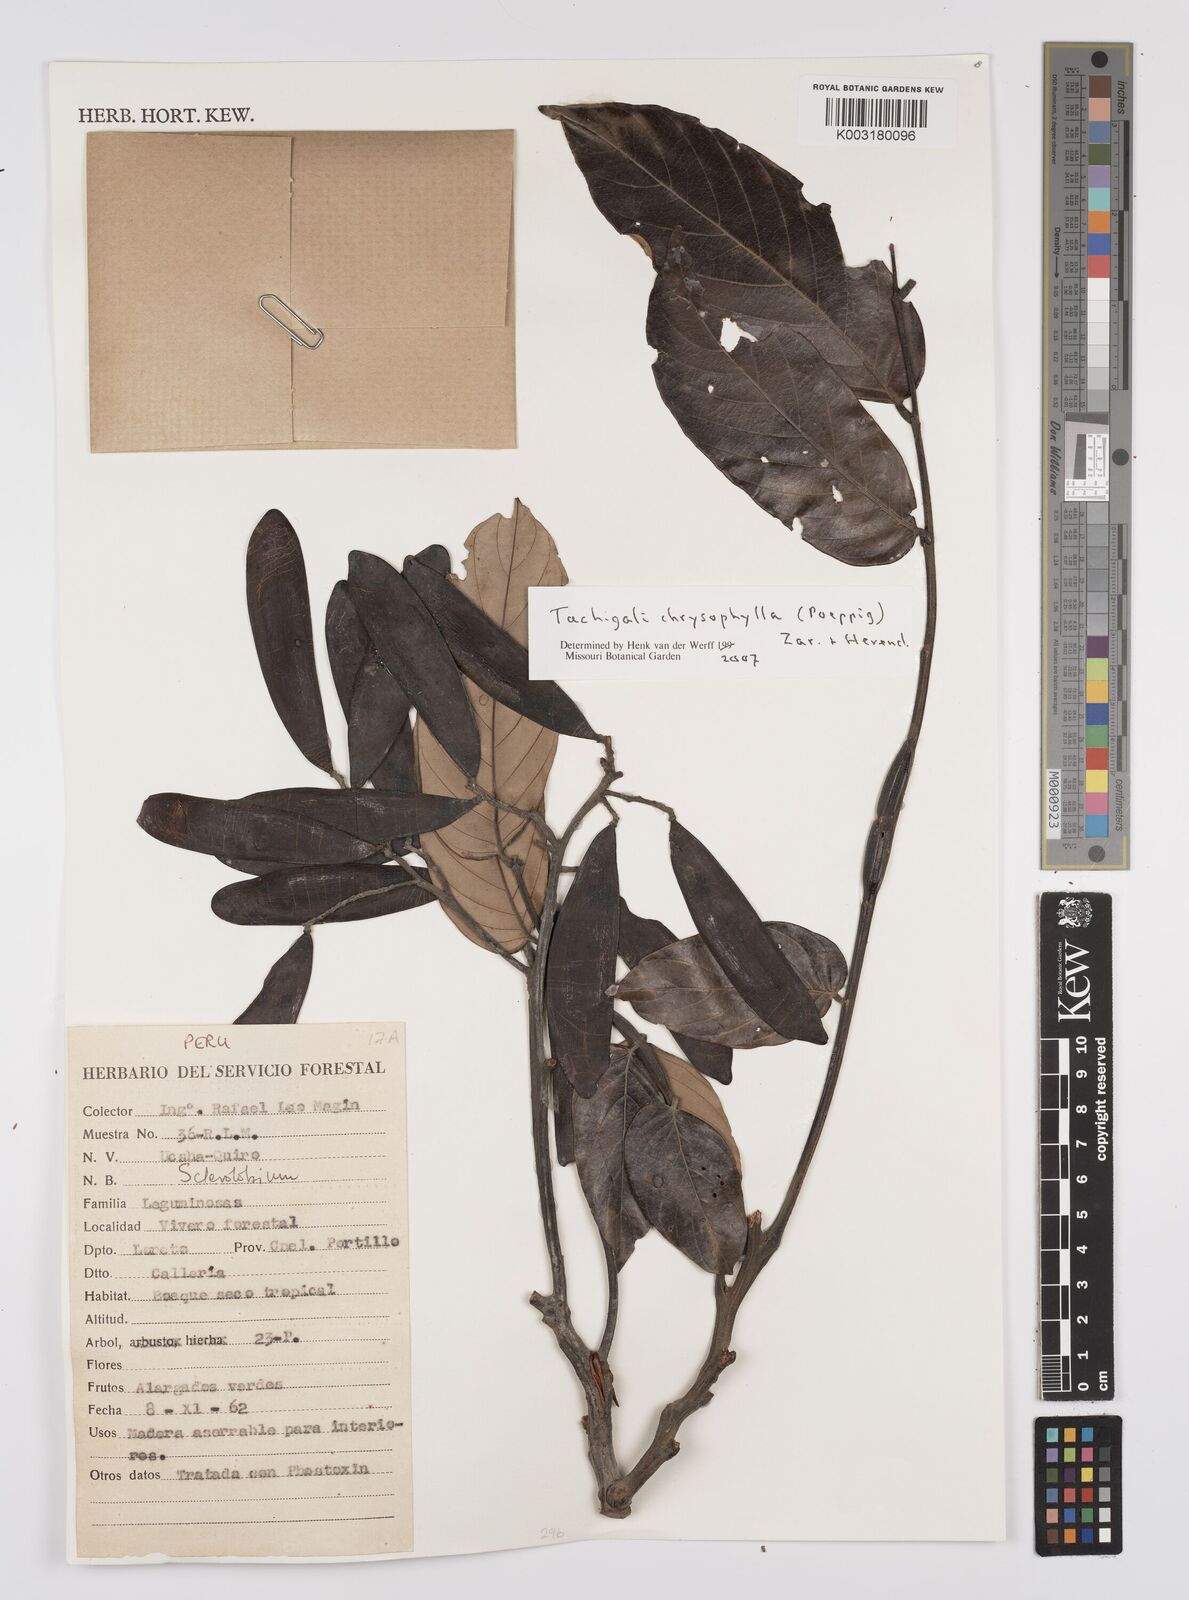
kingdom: Plantae
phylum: Tracheophyta
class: Magnoliopsida
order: Fabales
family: Fabaceae
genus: Tachigali
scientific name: Tachigali chrysophylla
